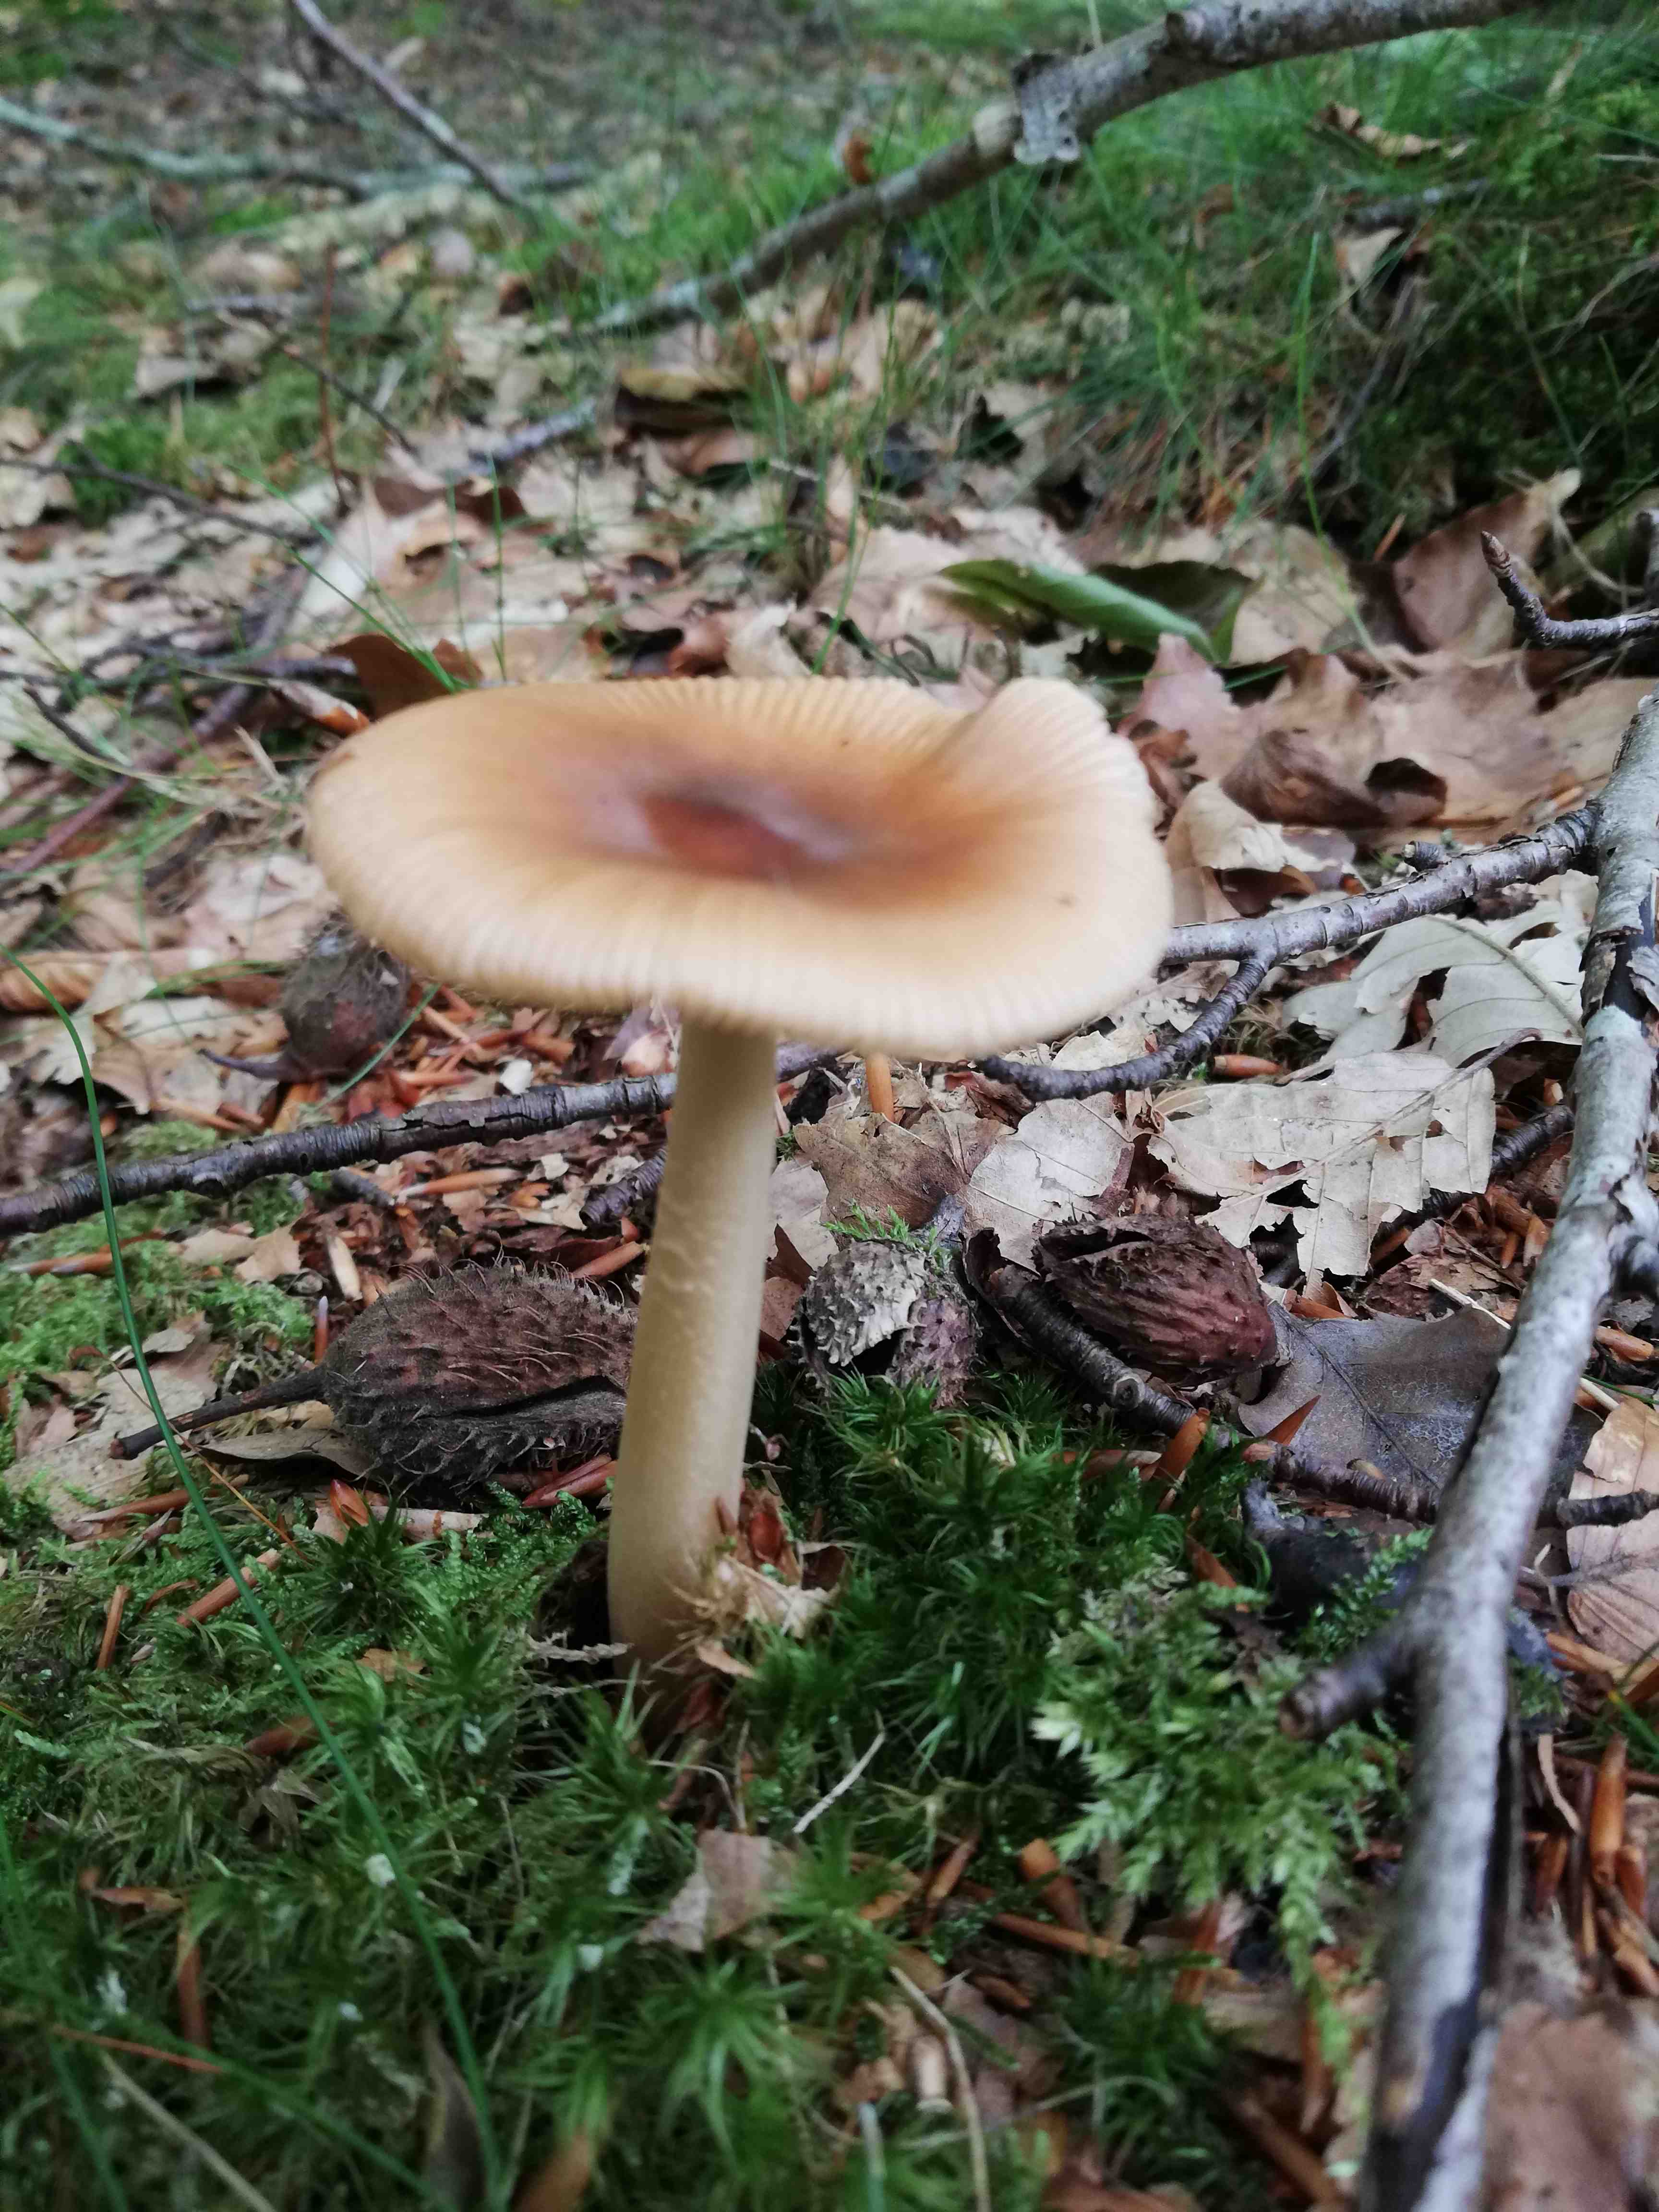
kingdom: Fungi
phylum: Basidiomycota
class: Agaricomycetes
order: Agaricales
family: Amanitaceae
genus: Amanita
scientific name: Amanita fulva
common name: brun kam-fluesvamp
